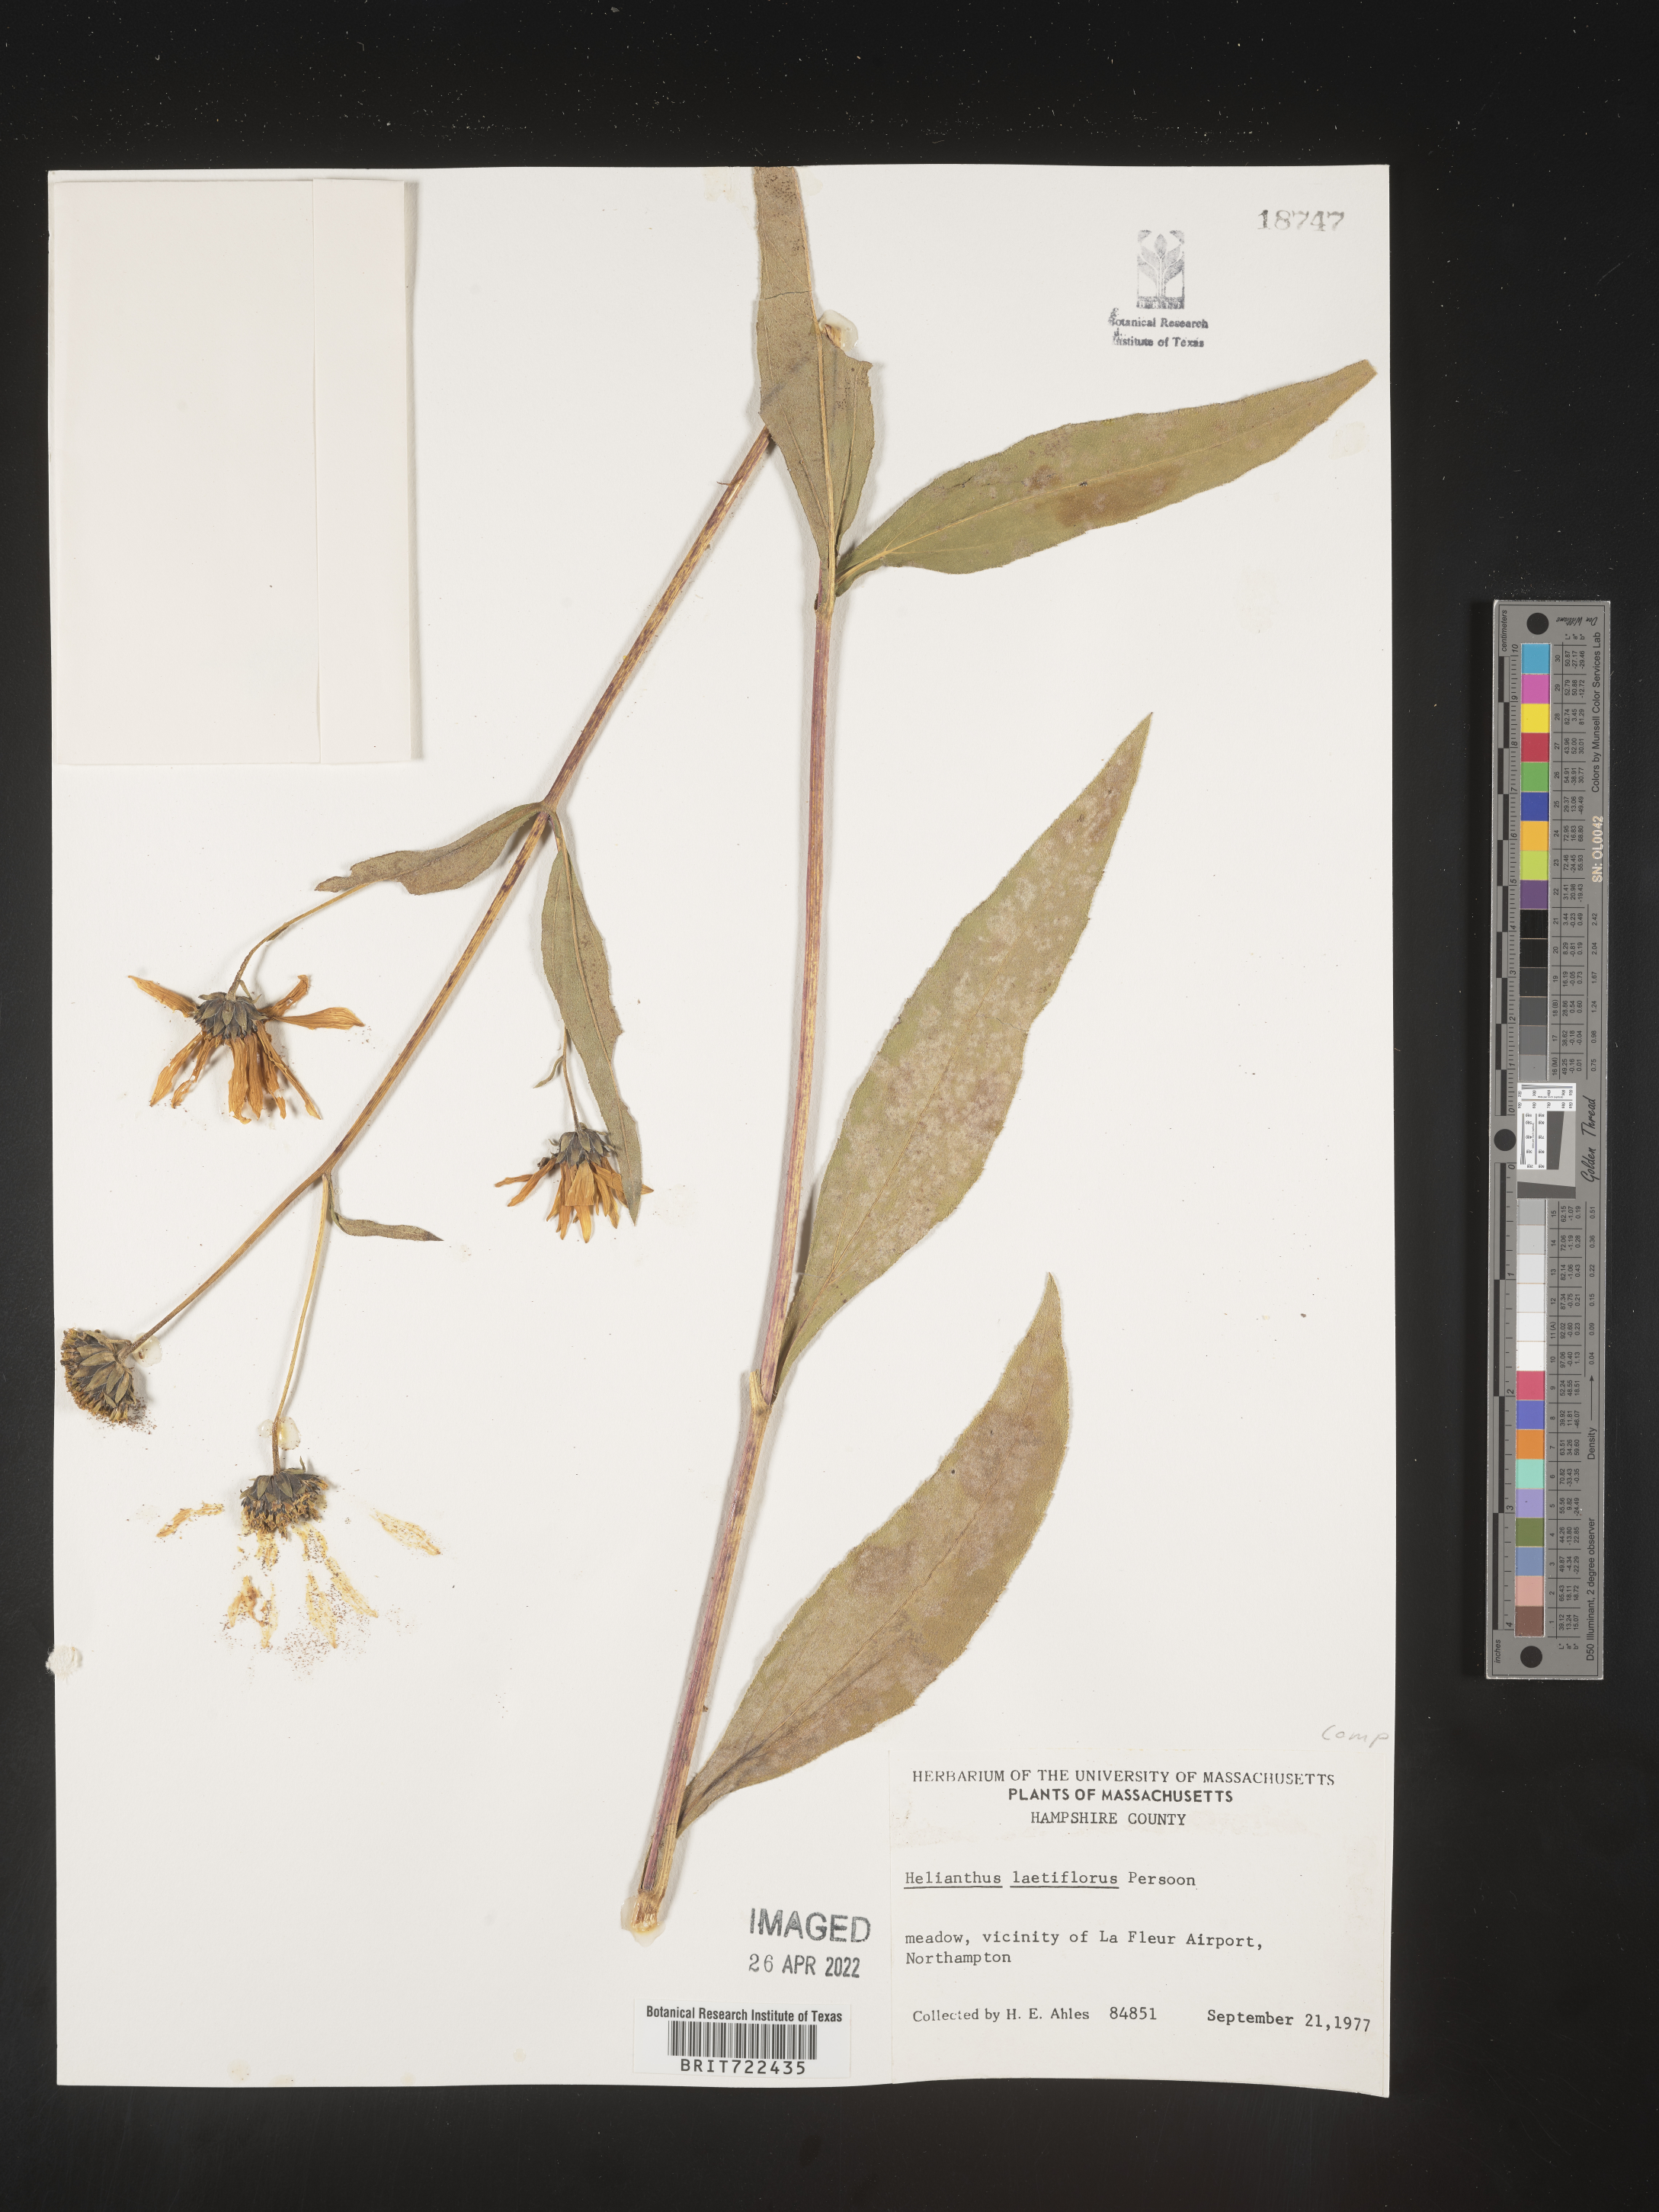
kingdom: Plantae
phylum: Tracheophyta
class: Magnoliopsida
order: Asterales
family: Asteraceae
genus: Helianthus
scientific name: Helianthus laetiflorus
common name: Perennial sunflower
